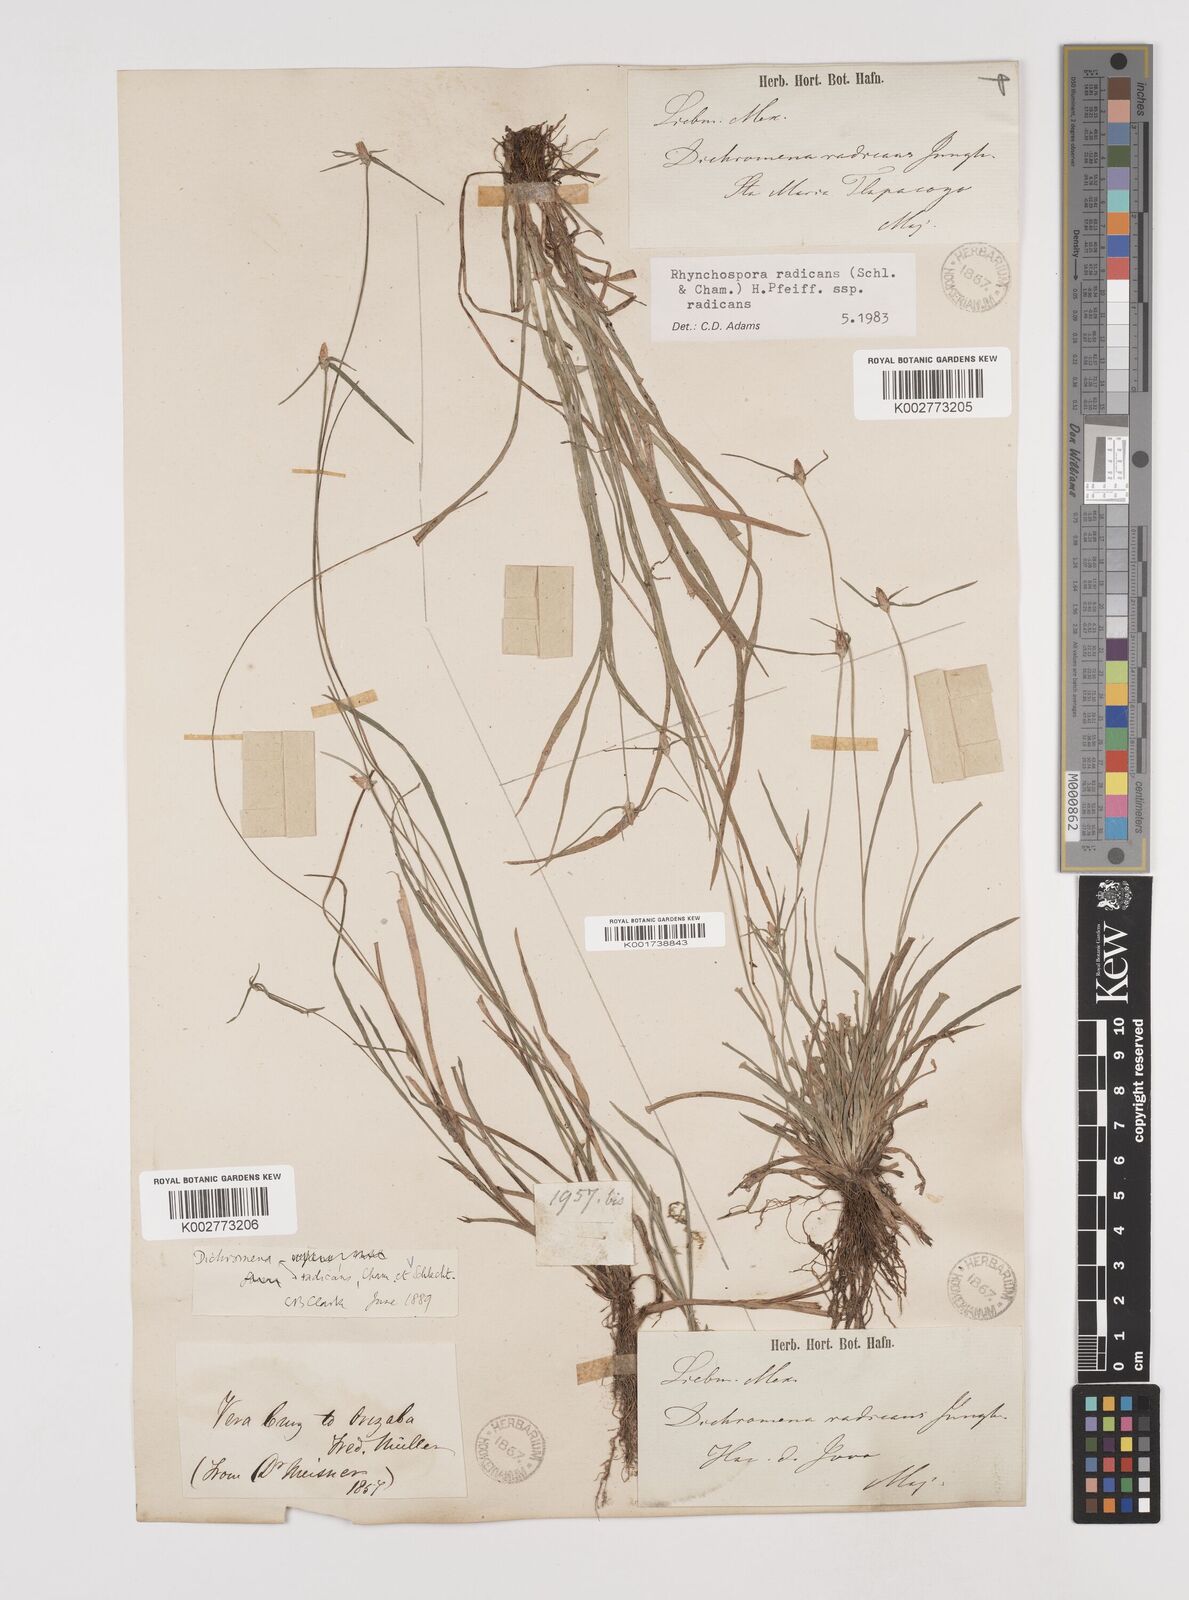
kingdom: Plantae
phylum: Tracheophyta
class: Liliopsida
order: Poales
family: Cyperaceae
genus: Rhynchospora
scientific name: Rhynchospora radicans
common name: Tropical whitetop
